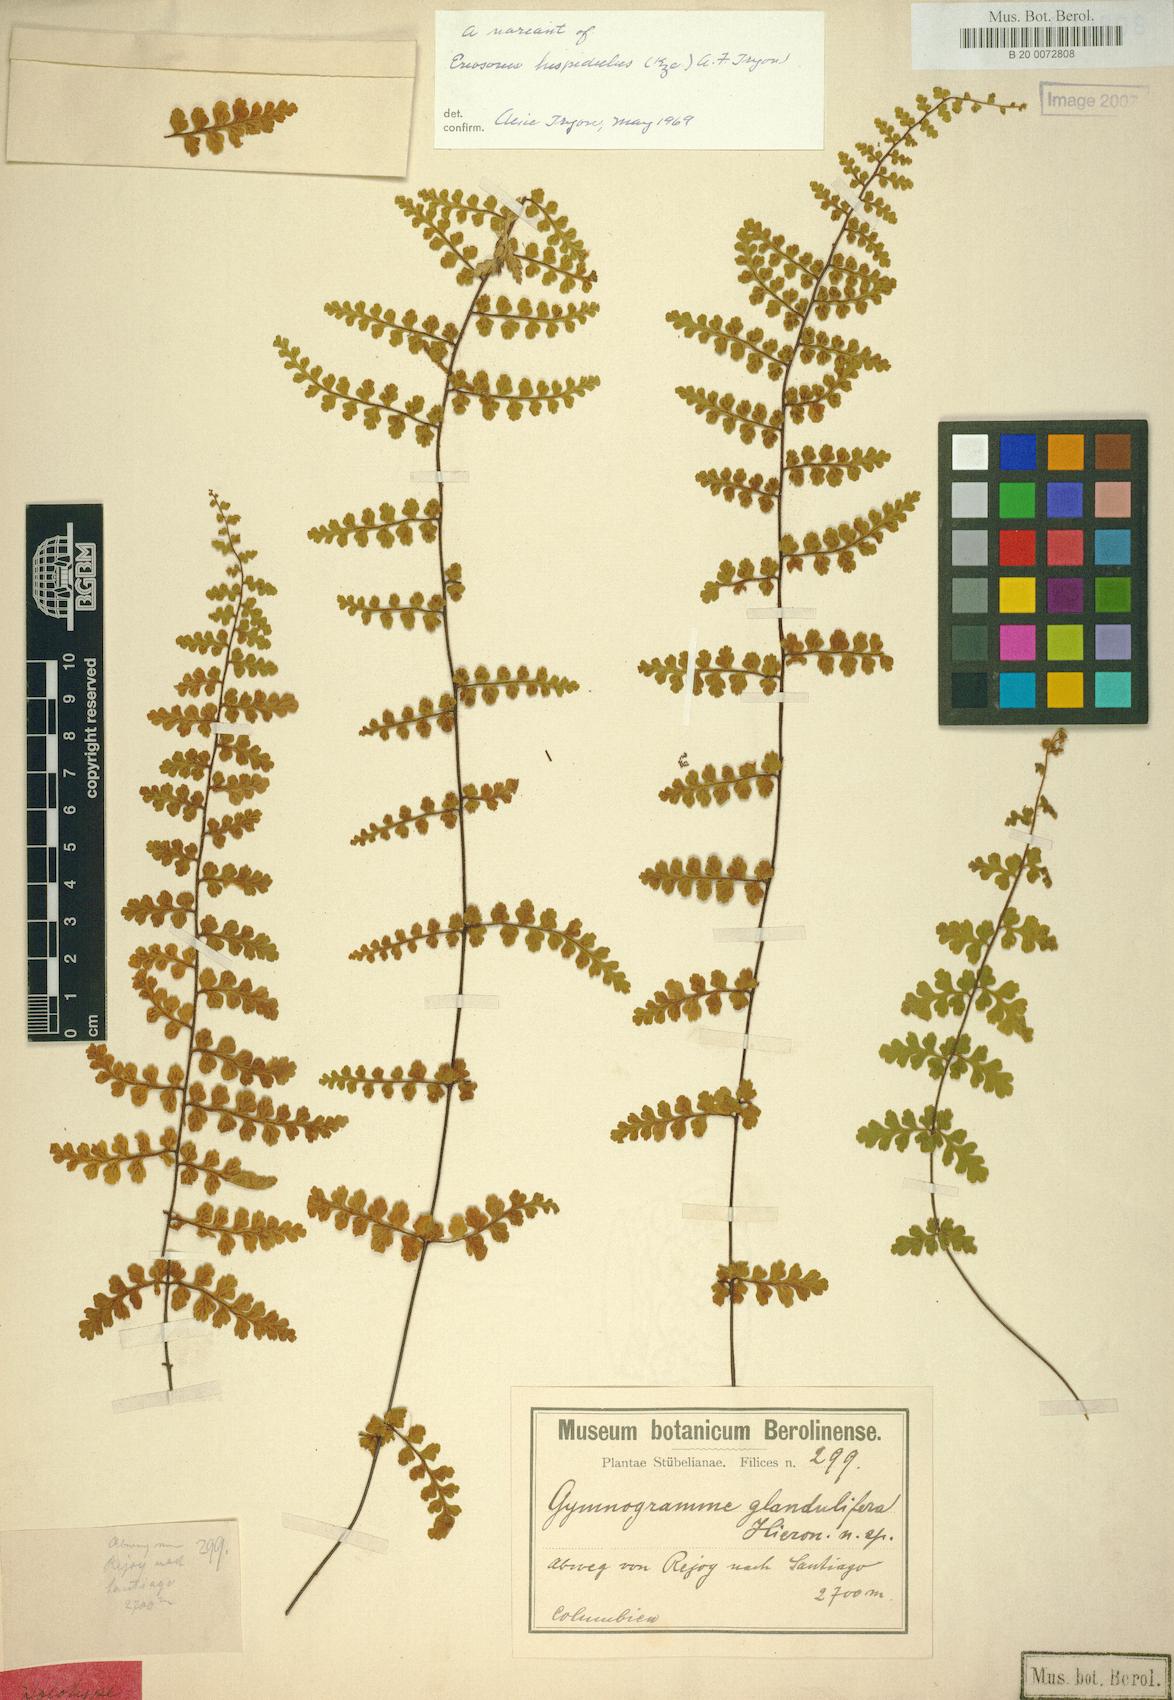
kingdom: Plantae
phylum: Tracheophyta
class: Polypodiopsida
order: Polypodiales
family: Pteridaceae
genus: Jamesonia
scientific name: Jamesonia glandulifera
